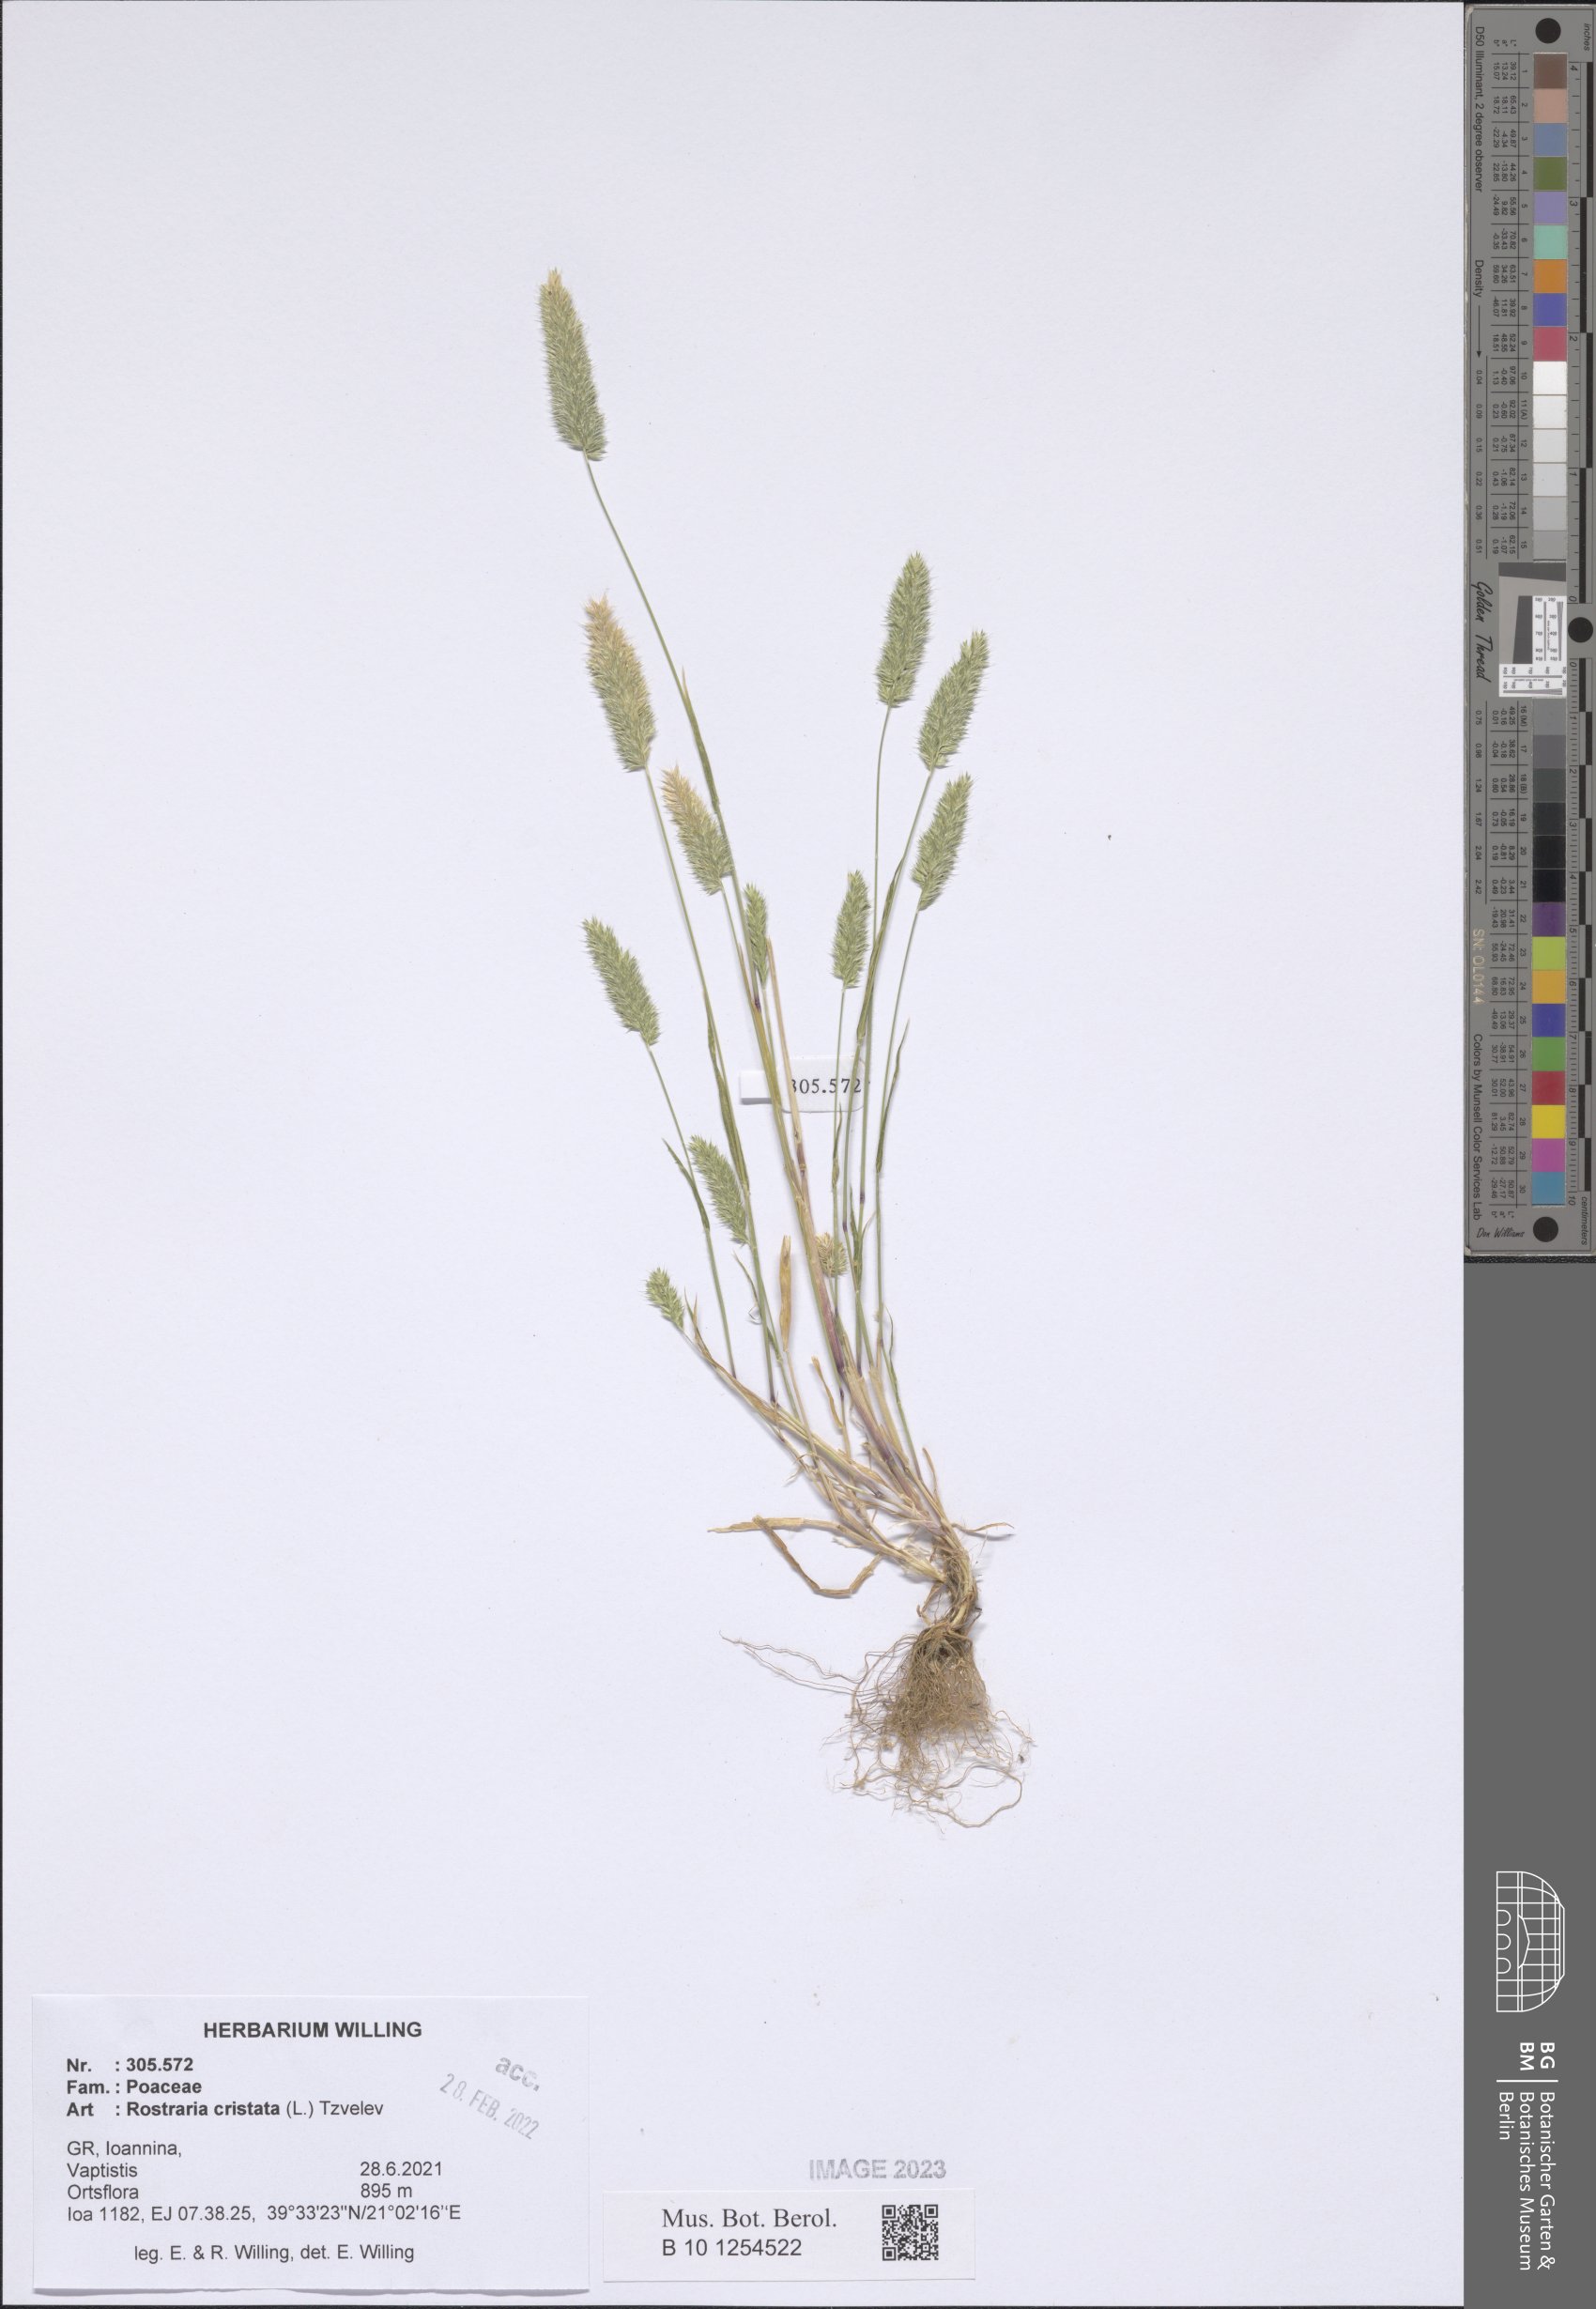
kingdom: Plantae
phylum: Tracheophyta
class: Liliopsida
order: Poales
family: Poaceae
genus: Rostraria
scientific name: Rostraria cristata
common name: Mediterranean hair-grass
